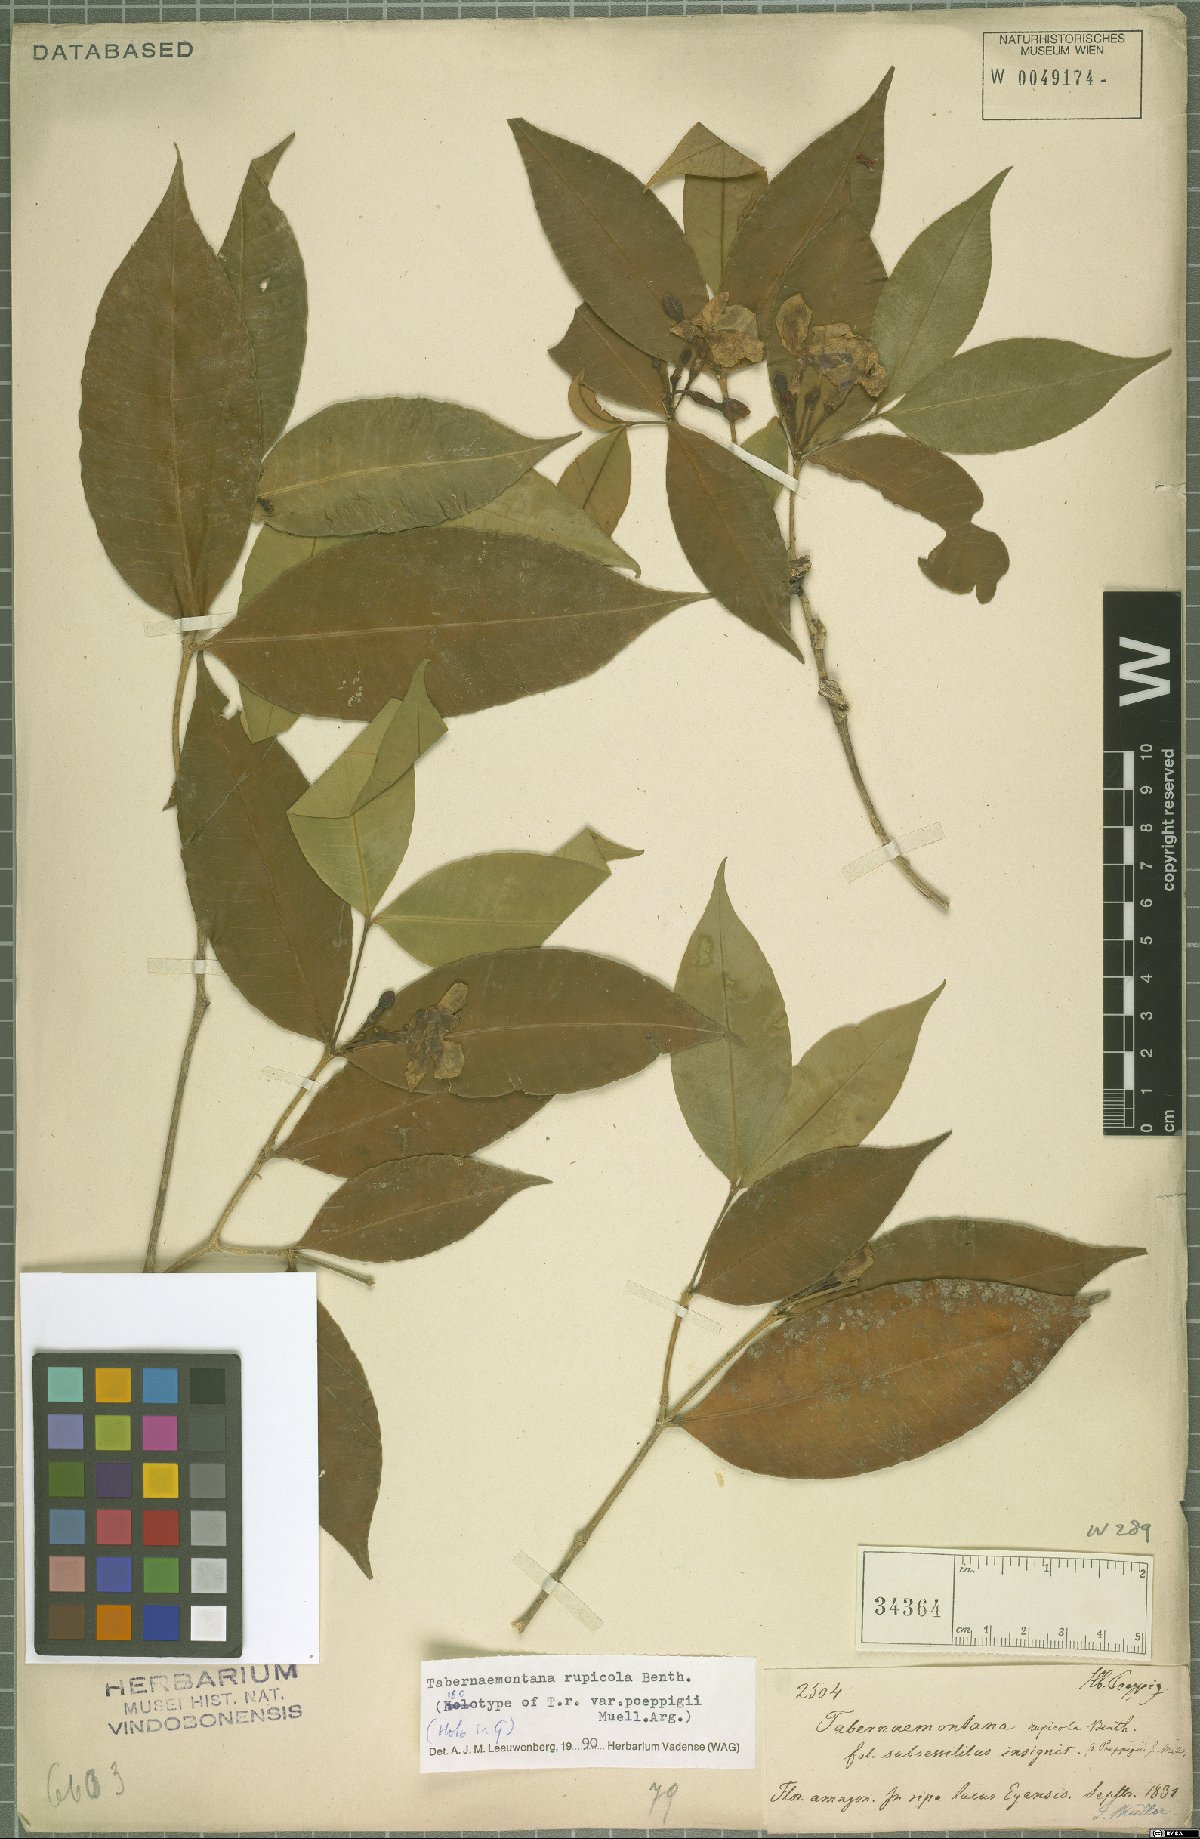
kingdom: Plantae
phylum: Tracheophyta
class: Magnoliopsida
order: Gentianales
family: Apocynaceae
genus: Tabernaemontana
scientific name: Tabernaemontana rupicola
